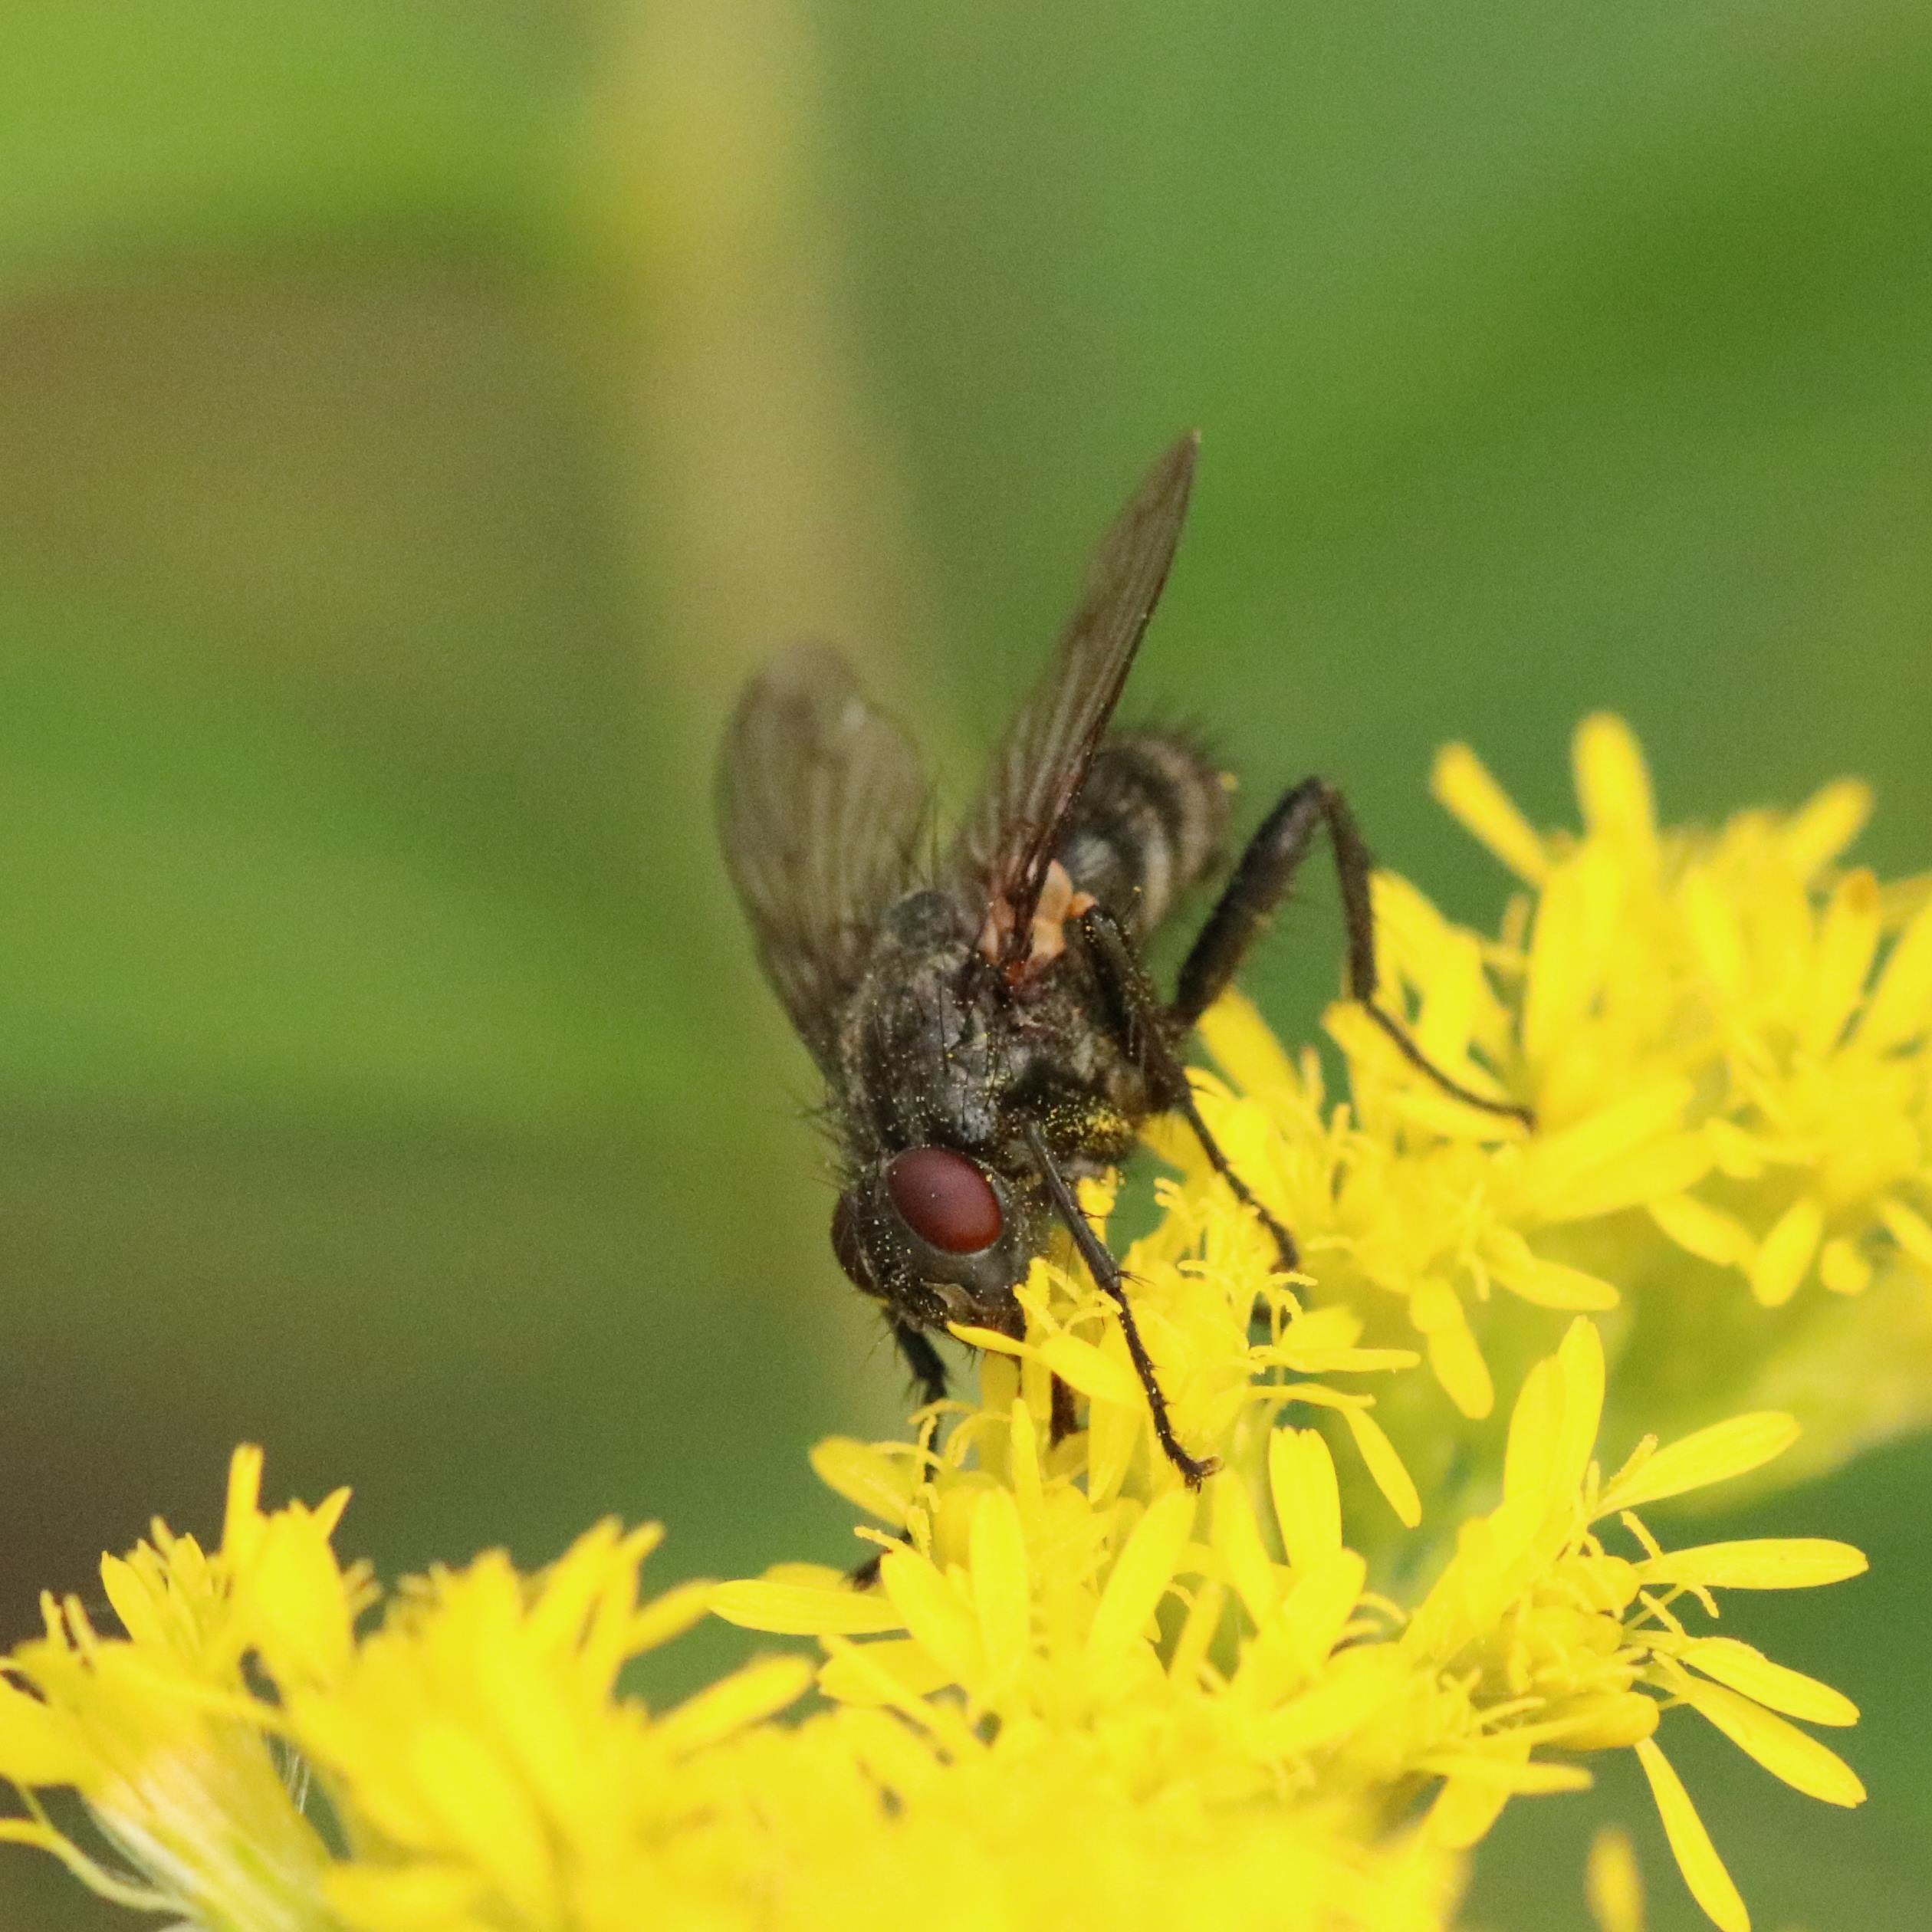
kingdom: Animalia
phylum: Arthropoda
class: Insecta
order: Diptera
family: Calliphoridae
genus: Phyto
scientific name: Phyto melanocephala
